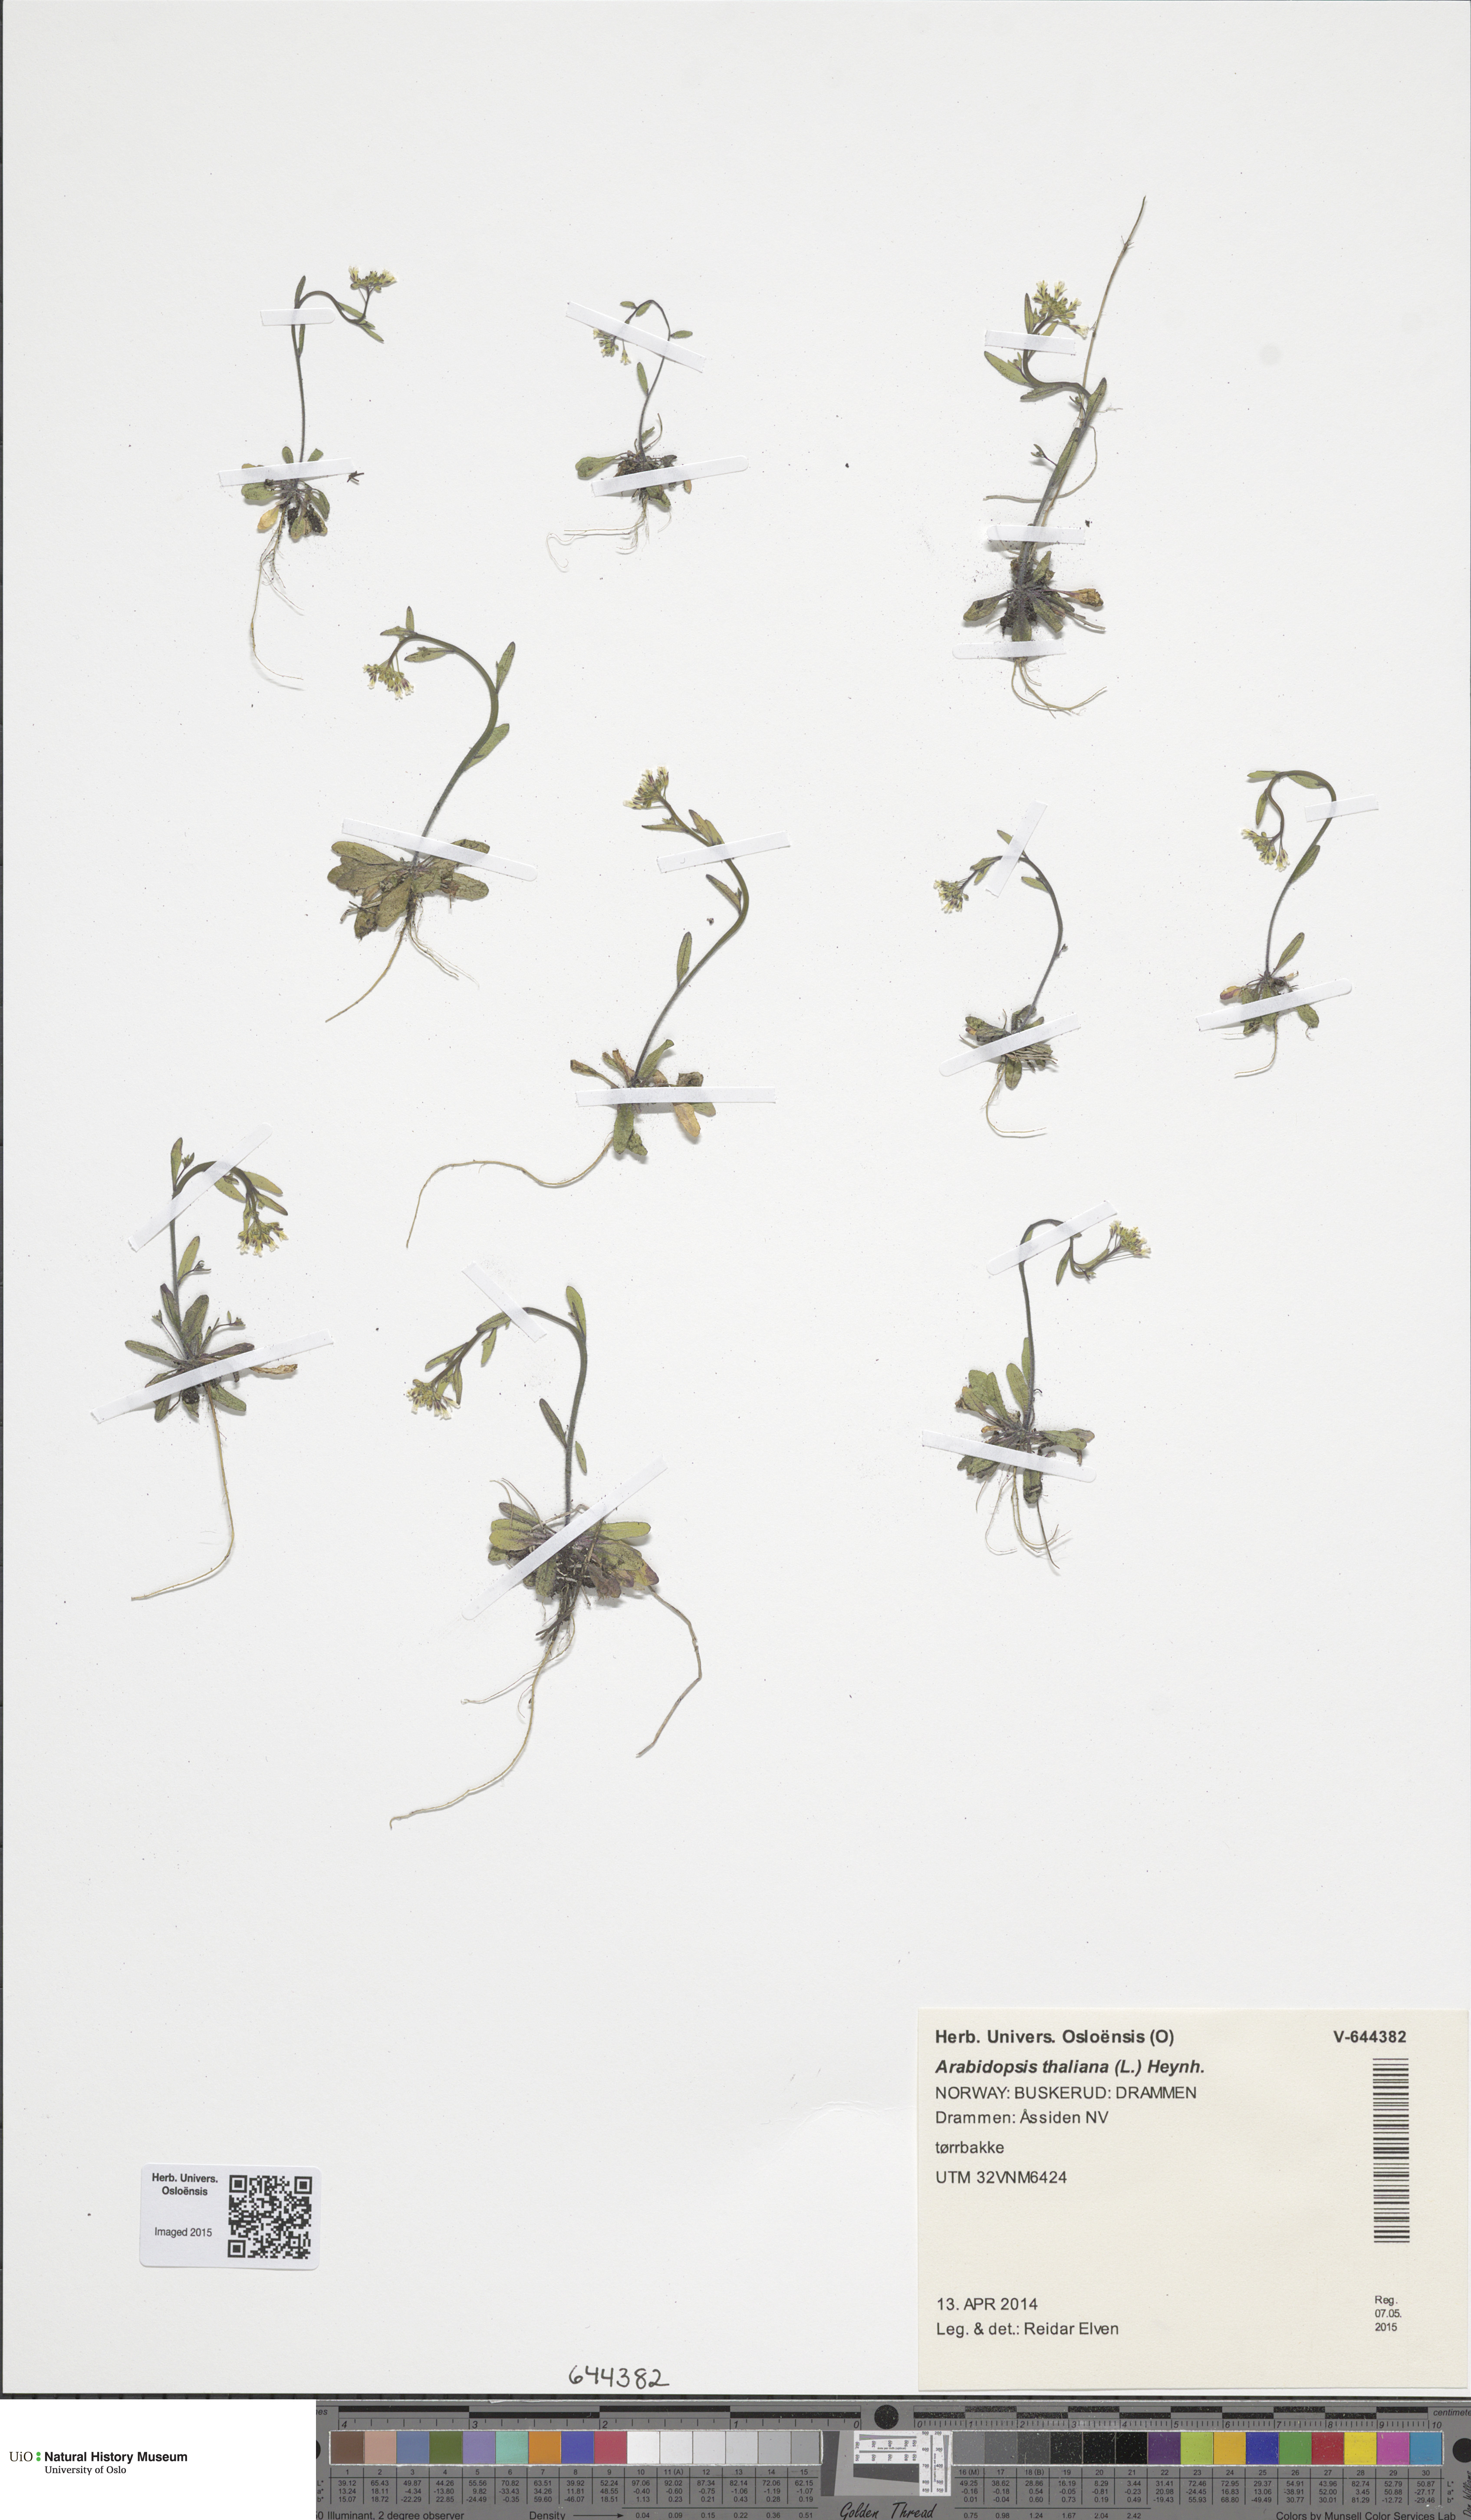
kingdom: Plantae
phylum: Tracheophyta
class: Magnoliopsida
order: Brassicales
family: Brassicaceae
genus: Arabidopsis
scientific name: Arabidopsis thaliana
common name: Thale cress
